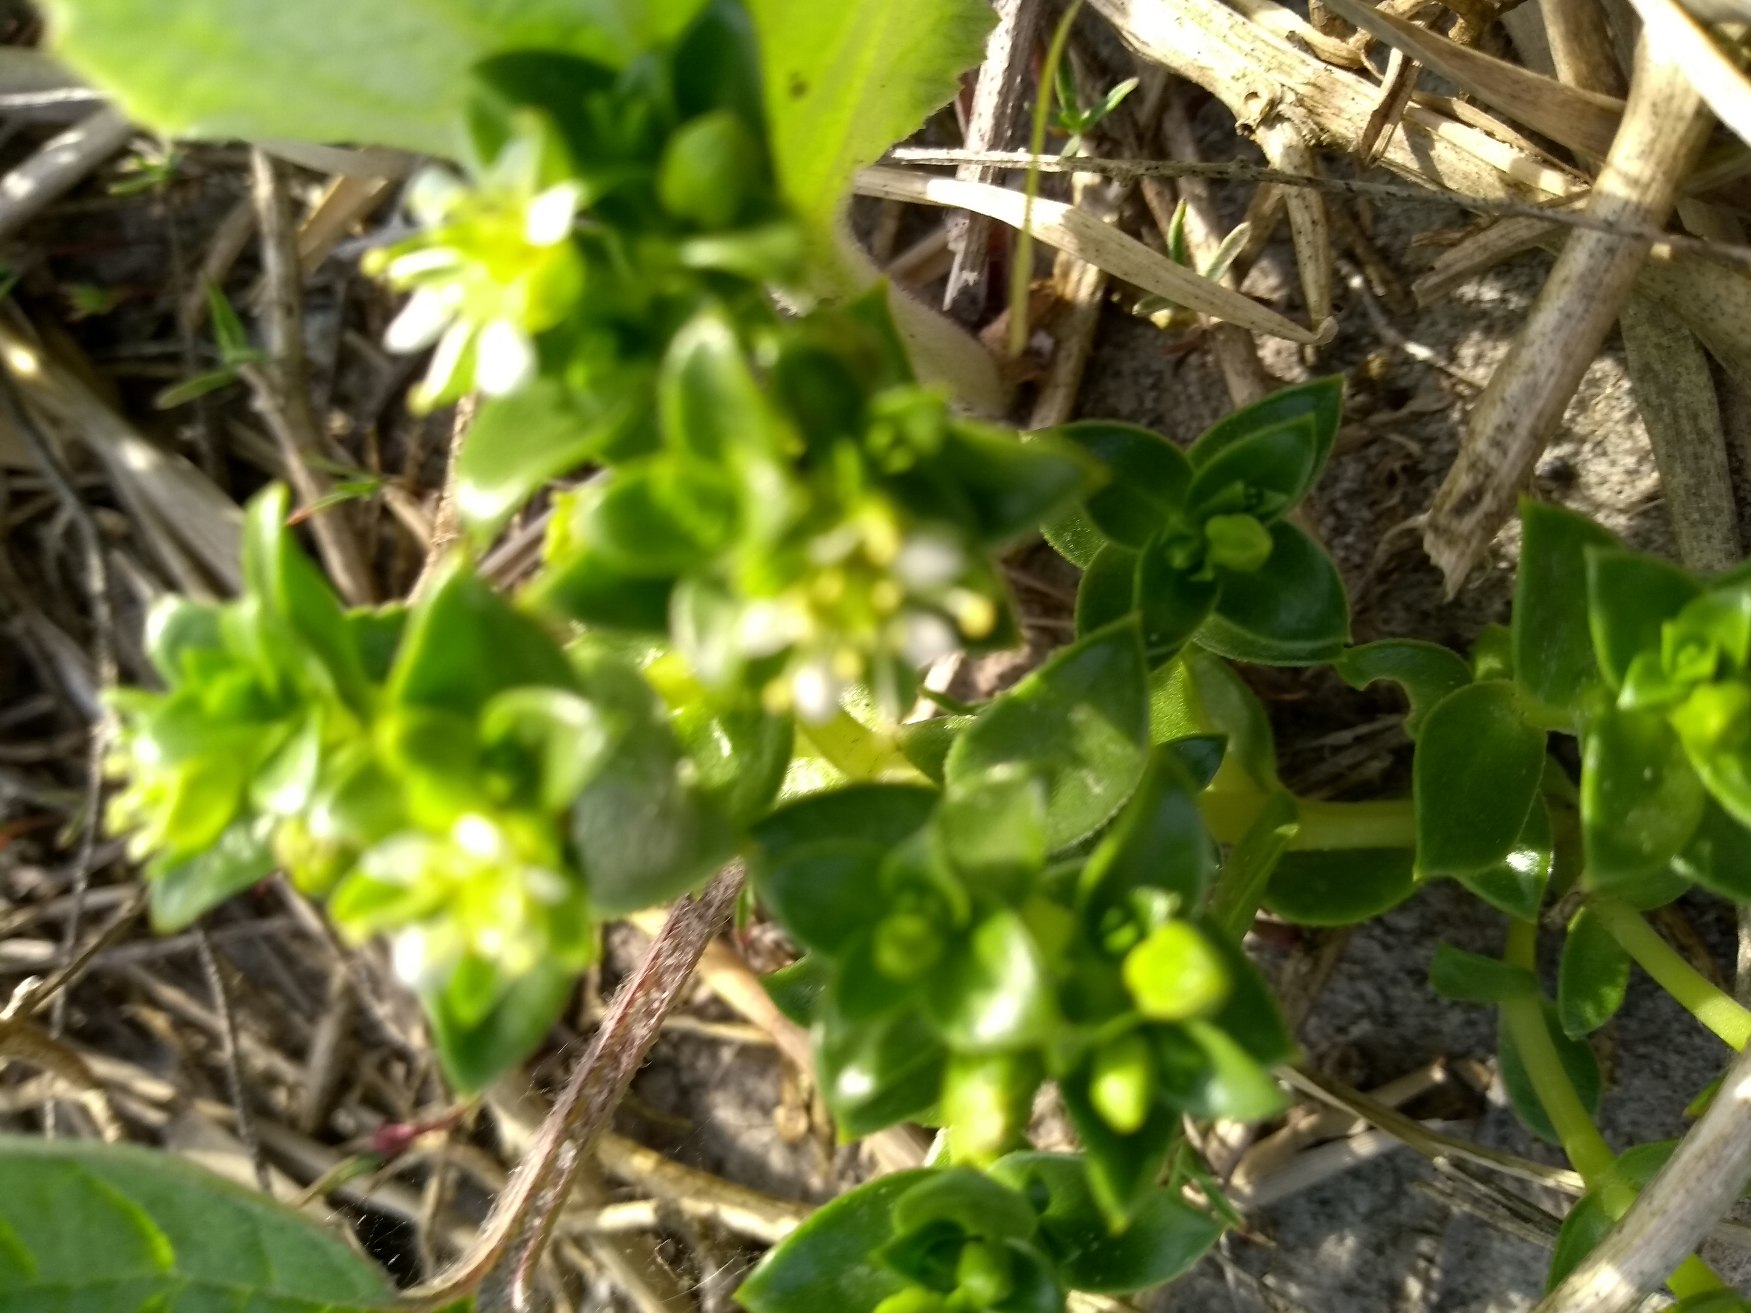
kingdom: Plantae
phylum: Tracheophyta
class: Magnoliopsida
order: Caryophyllales
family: Caryophyllaceae
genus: Honckenya
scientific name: Honckenya peploides
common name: Strandarve
